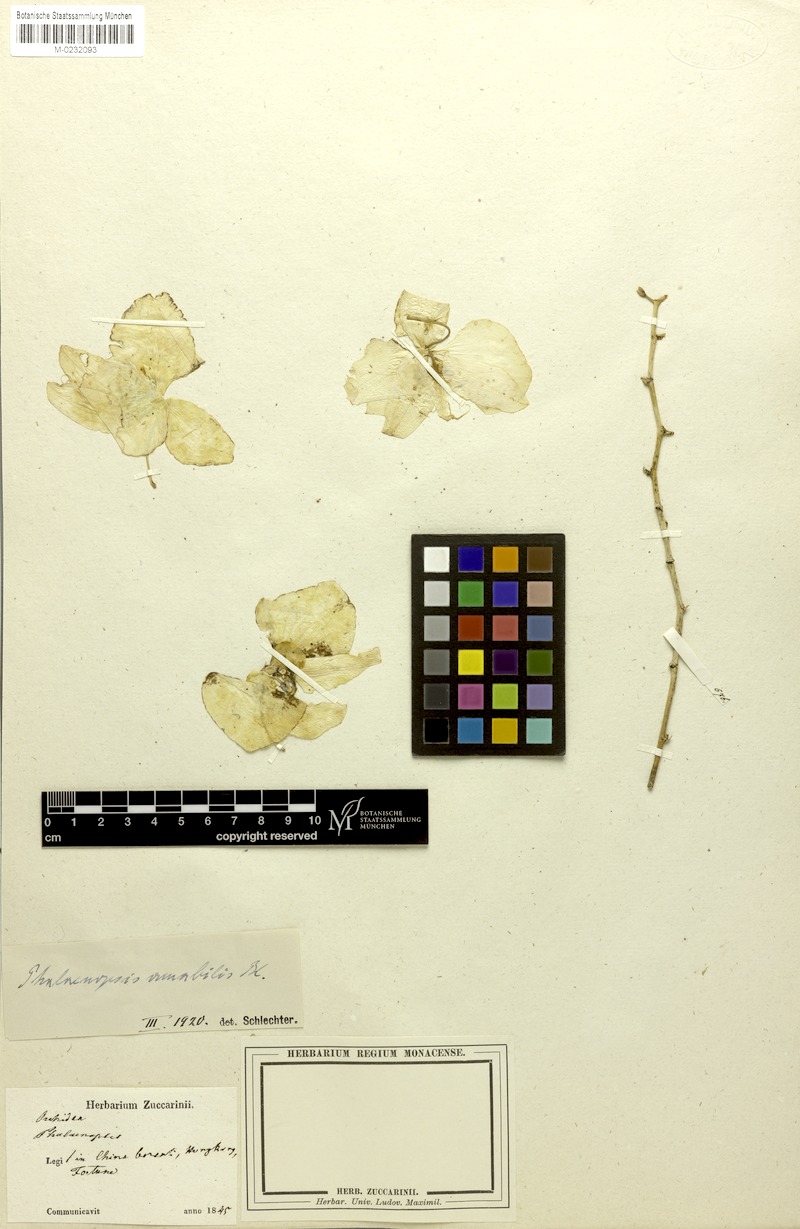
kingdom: Plantae
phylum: Tracheophyta
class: Liliopsida
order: Asparagales
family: Orchidaceae
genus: Phalaenopsis
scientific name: Phalaenopsis amabilis
